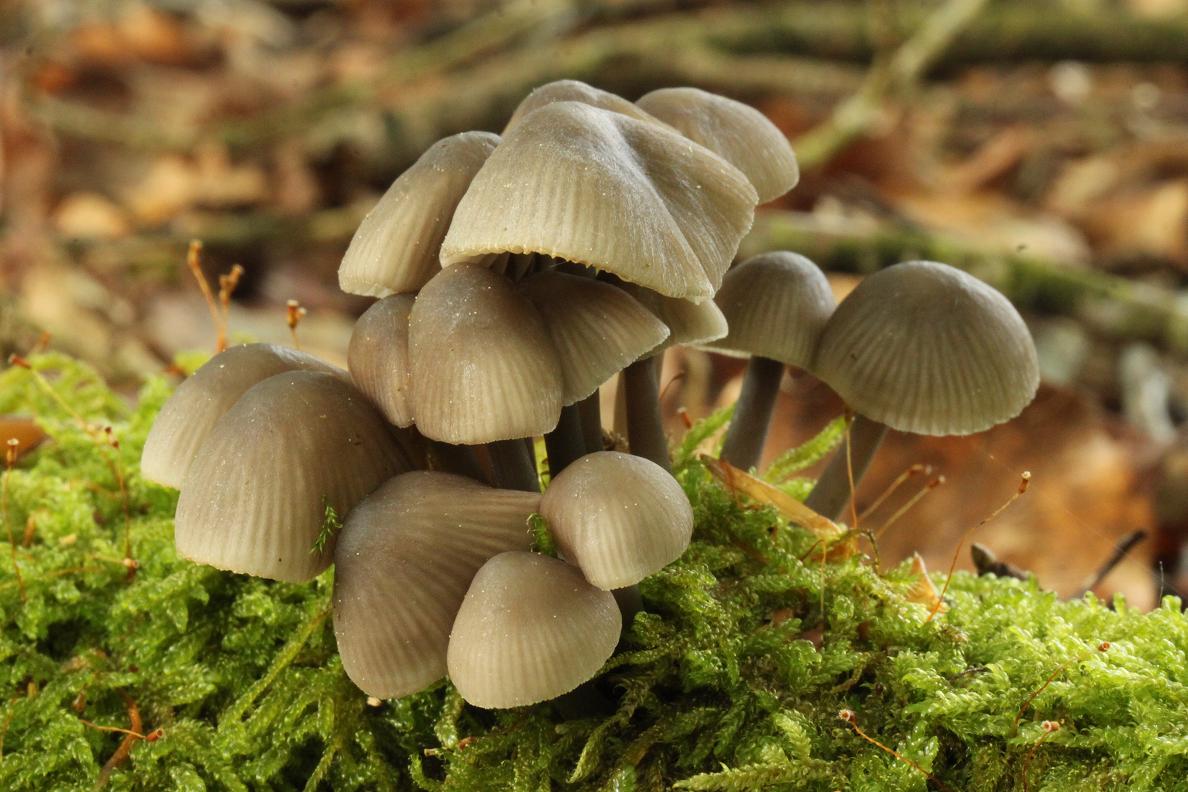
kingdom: Fungi
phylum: Basidiomycota
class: Agaricomycetes
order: Agaricales
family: Mycenaceae
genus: Mycena
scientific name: Mycena abramsii
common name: sommer-huesvamp
